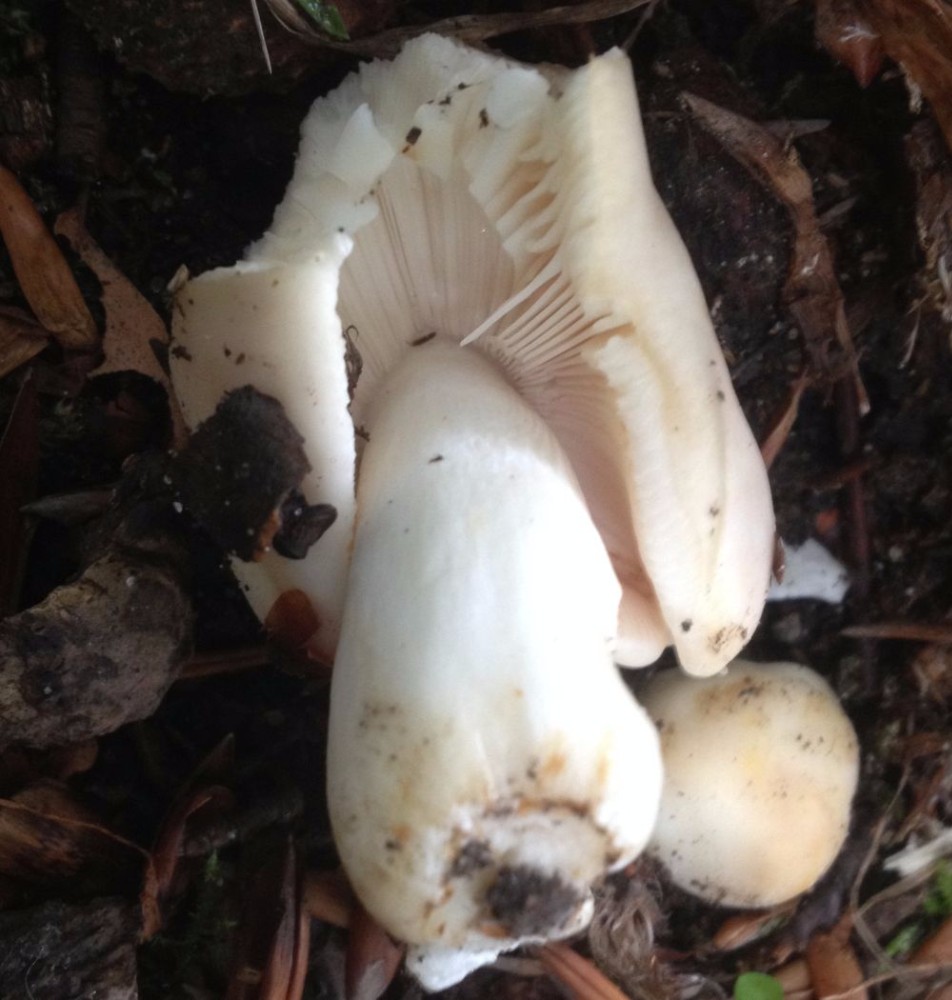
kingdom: Fungi
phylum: Basidiomycota
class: Agaricomycetes
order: Russulales
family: Russulaceae
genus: Russula
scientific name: Russula roseoaurantia
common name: kornet skørhat
